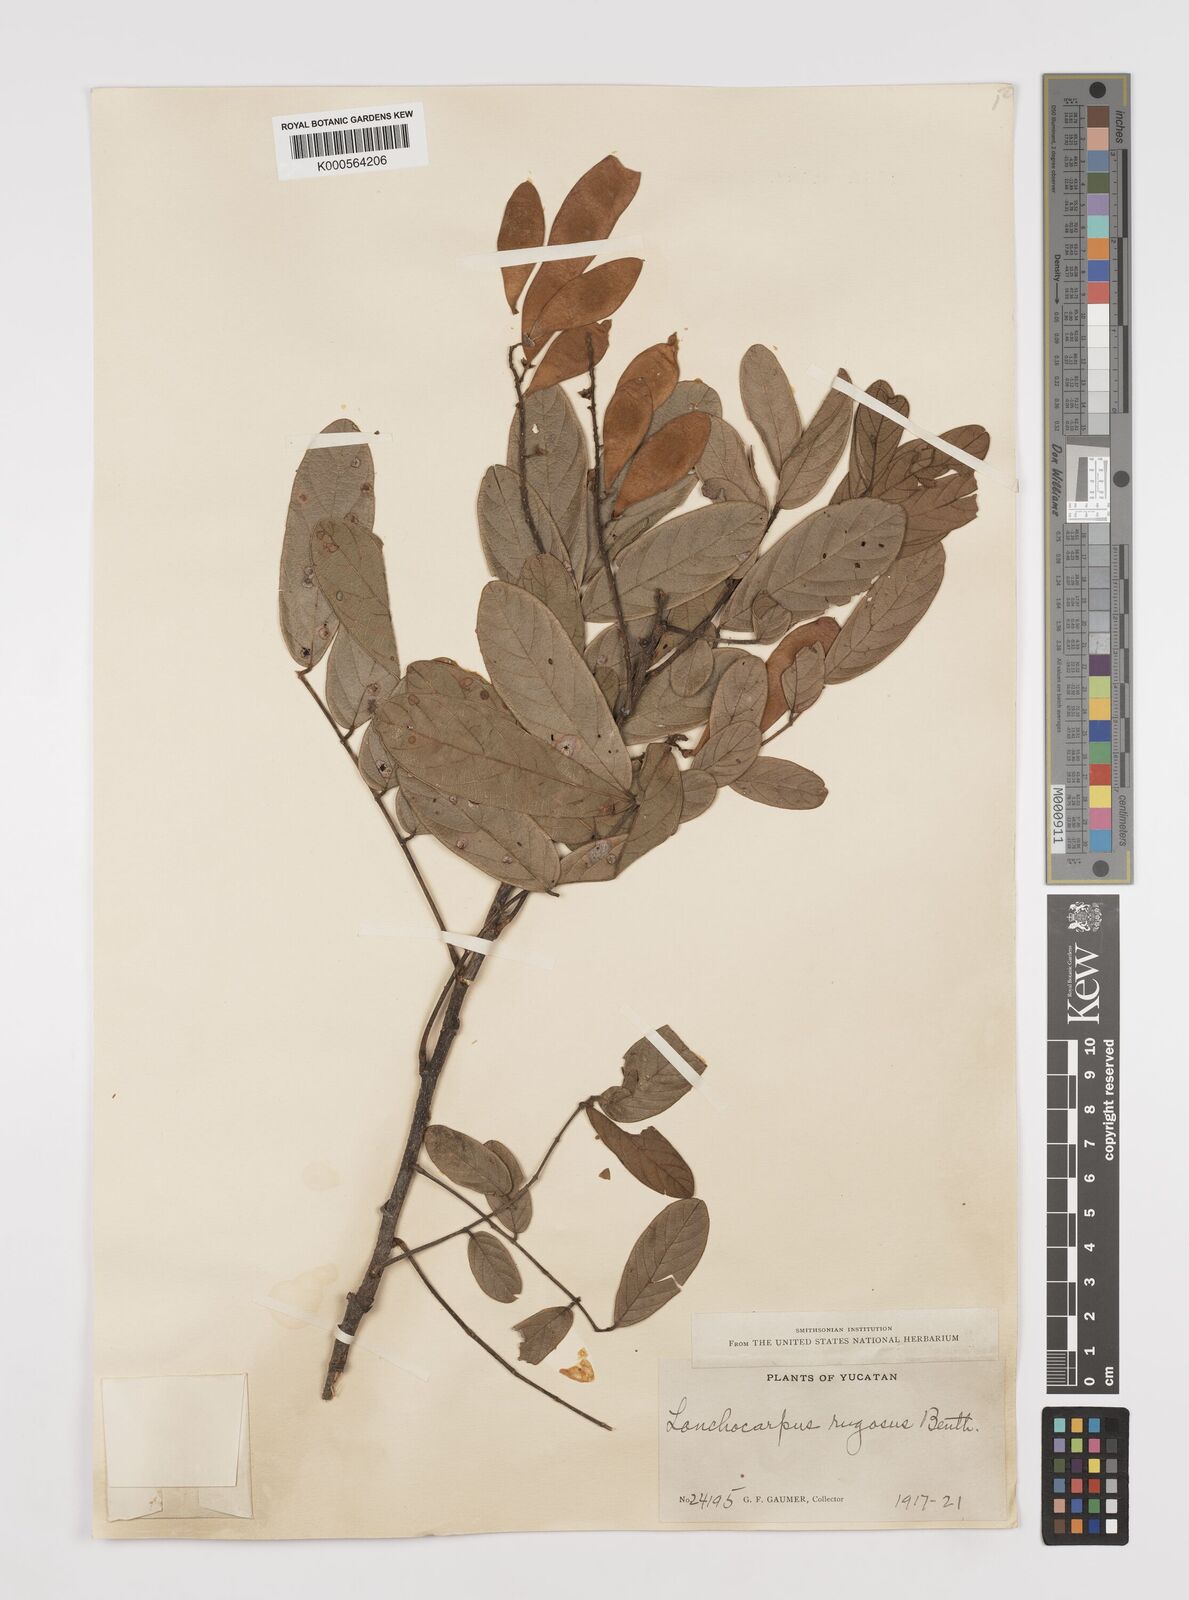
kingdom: Plantae
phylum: Tracheophyta
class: Magnoliopsida
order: Fabales
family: Fabaceae
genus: Lonchocarpus
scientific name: Lonchocarpus rugosus
